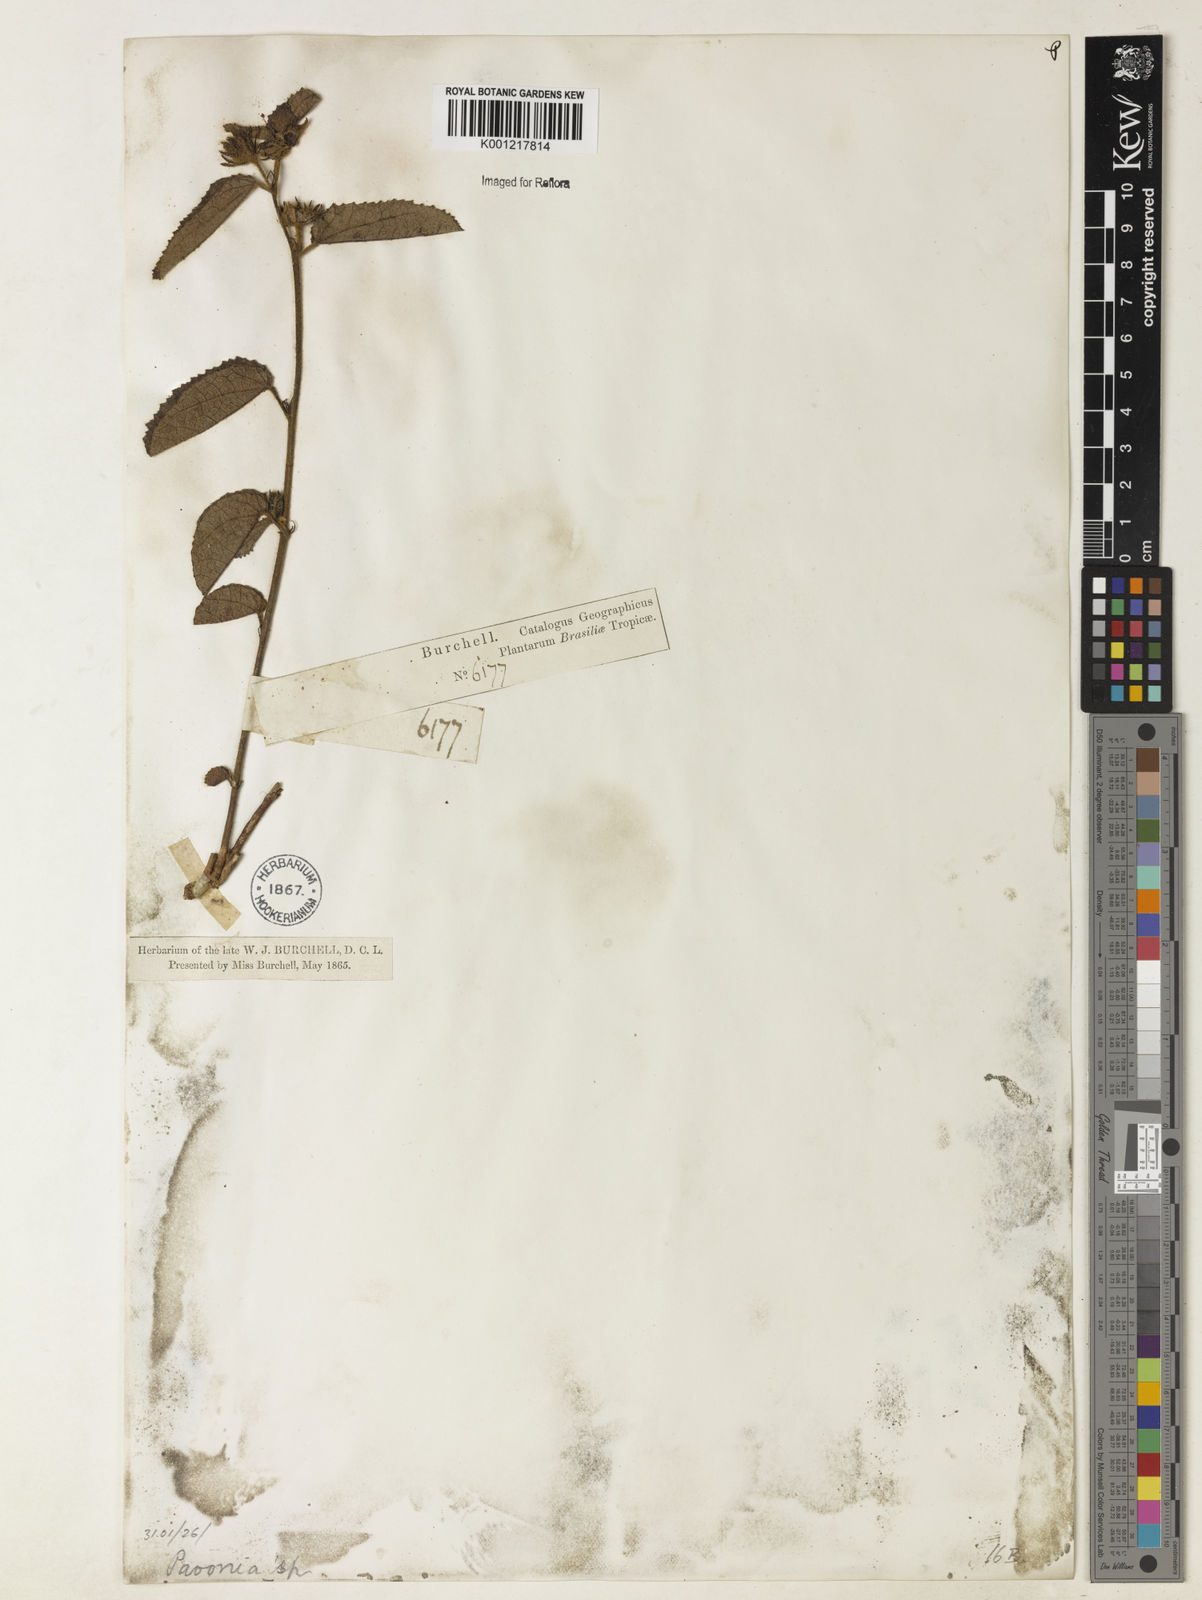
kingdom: Plantae
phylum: Tracheophyta
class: Magnoliopsida
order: Malvales
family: Malvaceae
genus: Pavonia
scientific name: Pavonia
